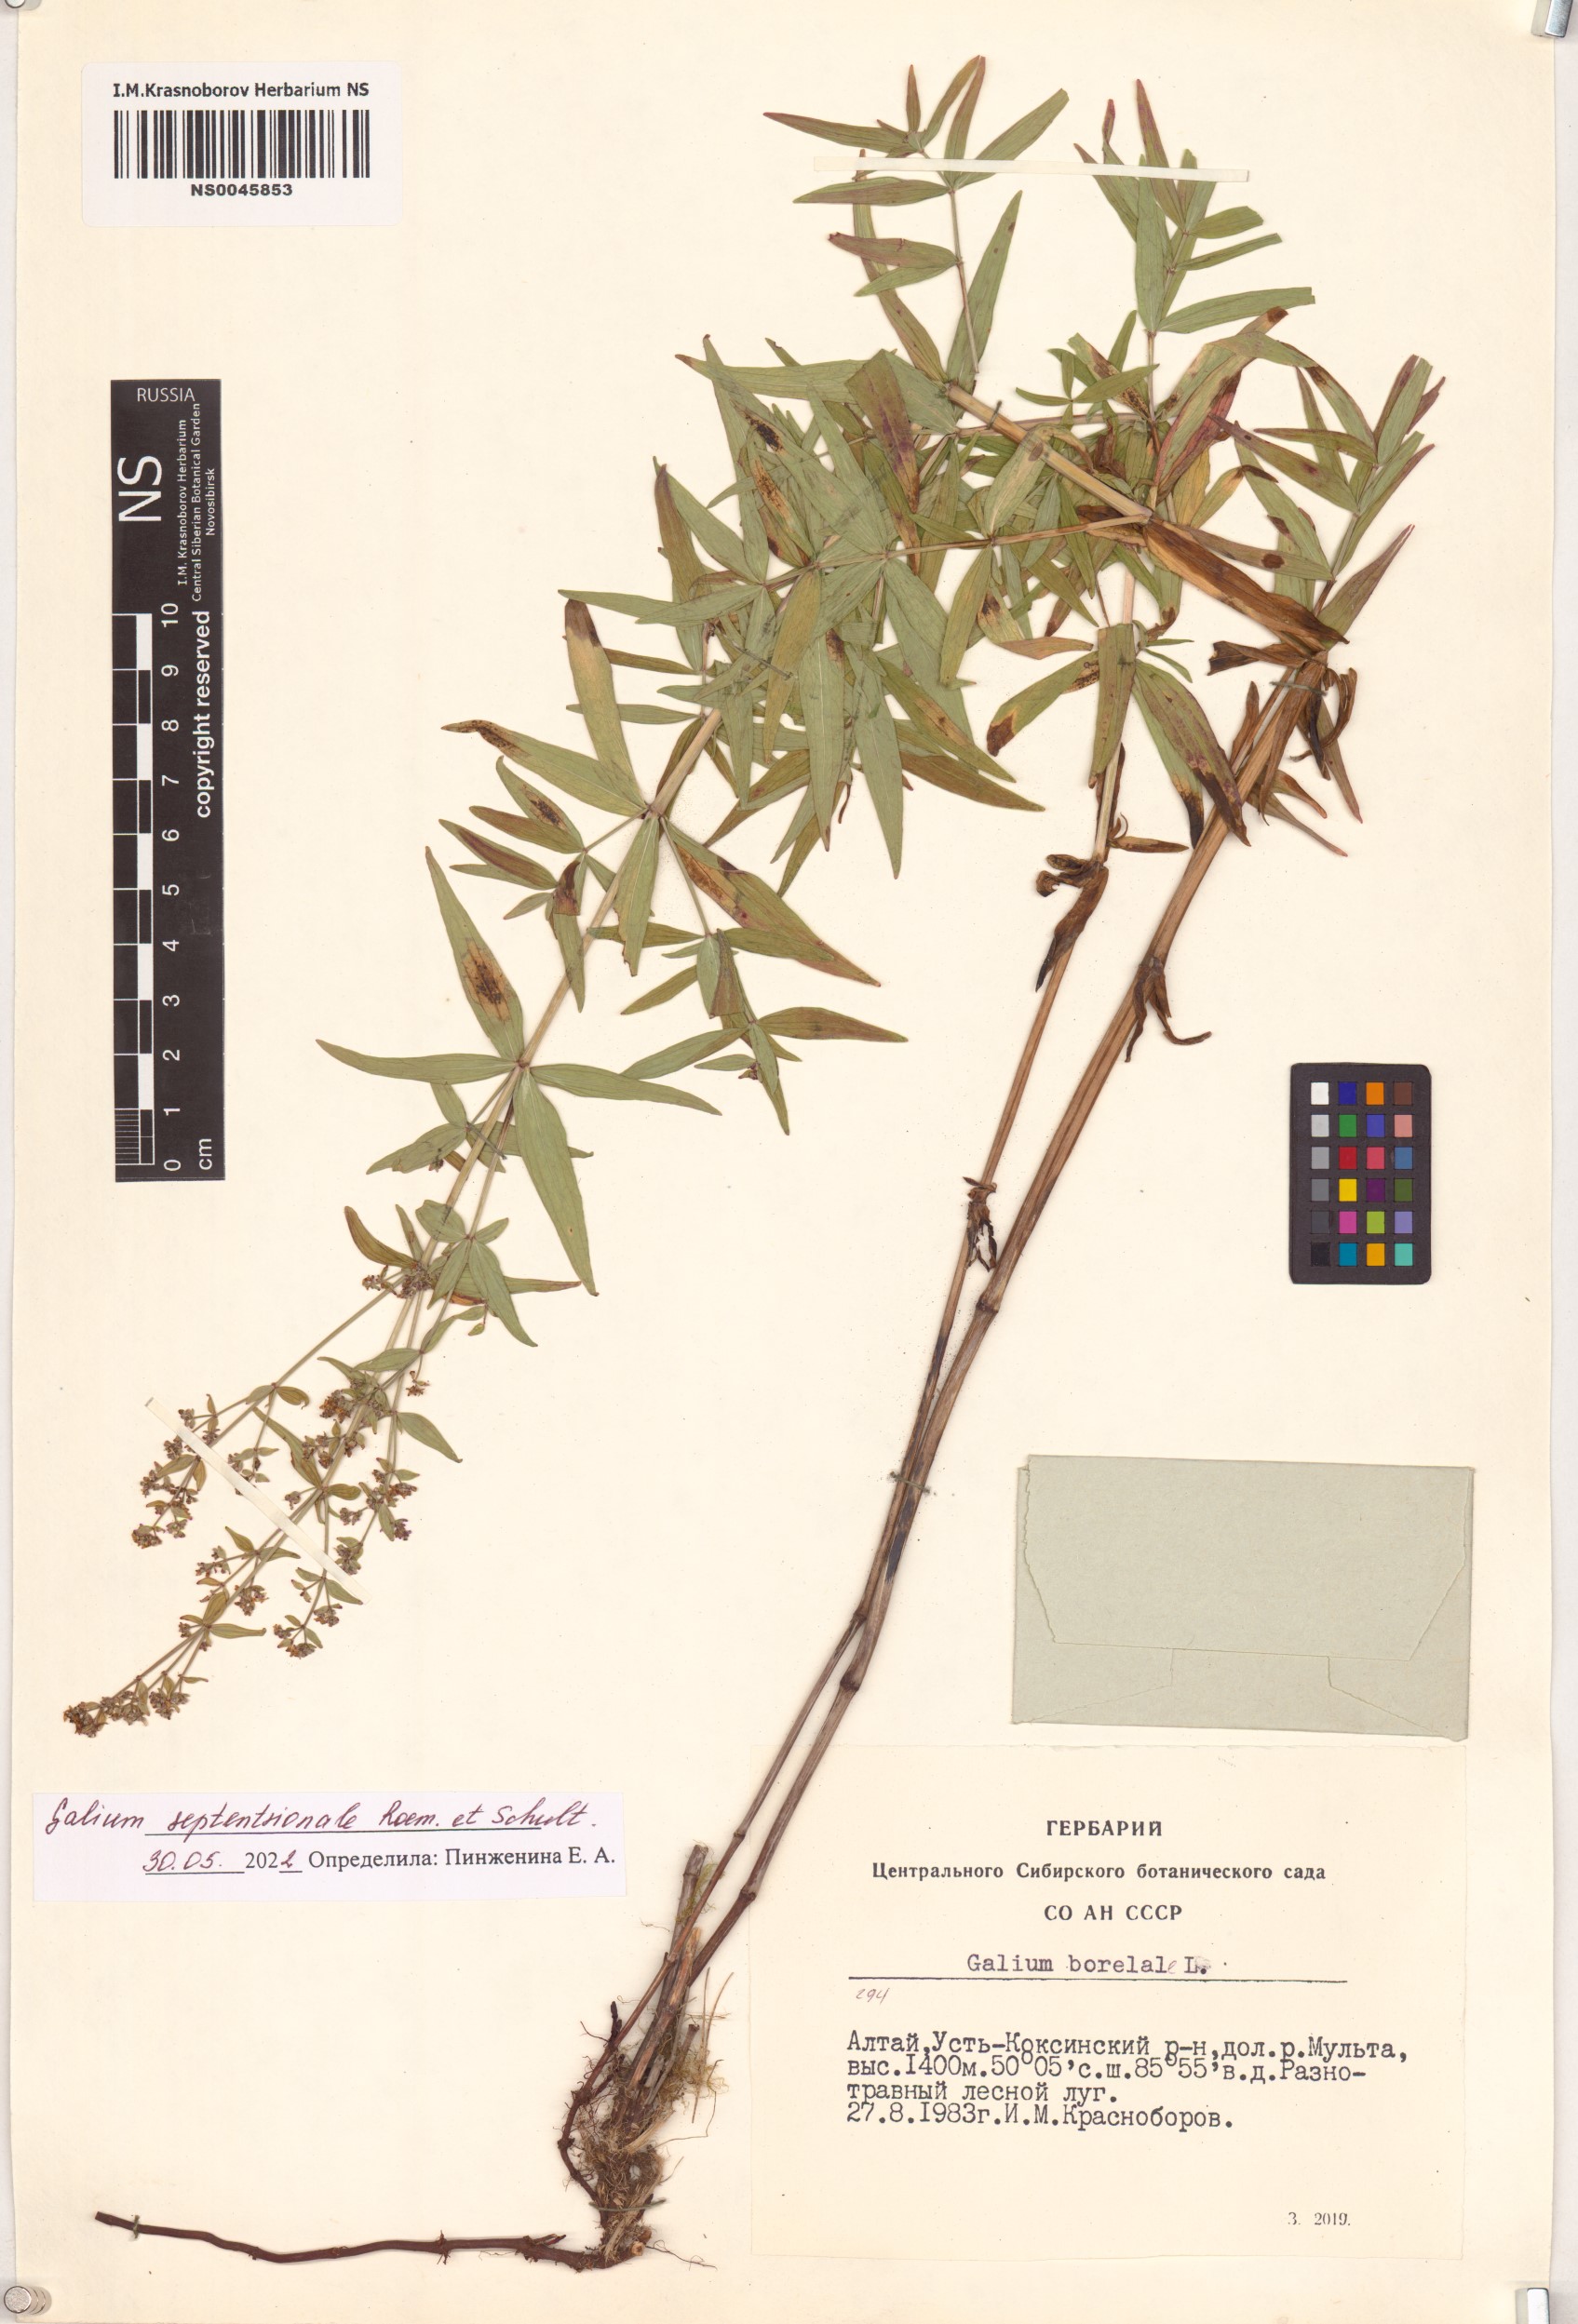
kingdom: Plantae
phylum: Tracheophyta
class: Magnoliopsida
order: Gentianales
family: Rubiaceae
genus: Galium
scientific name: Galium boreale
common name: Northern bedstraw
